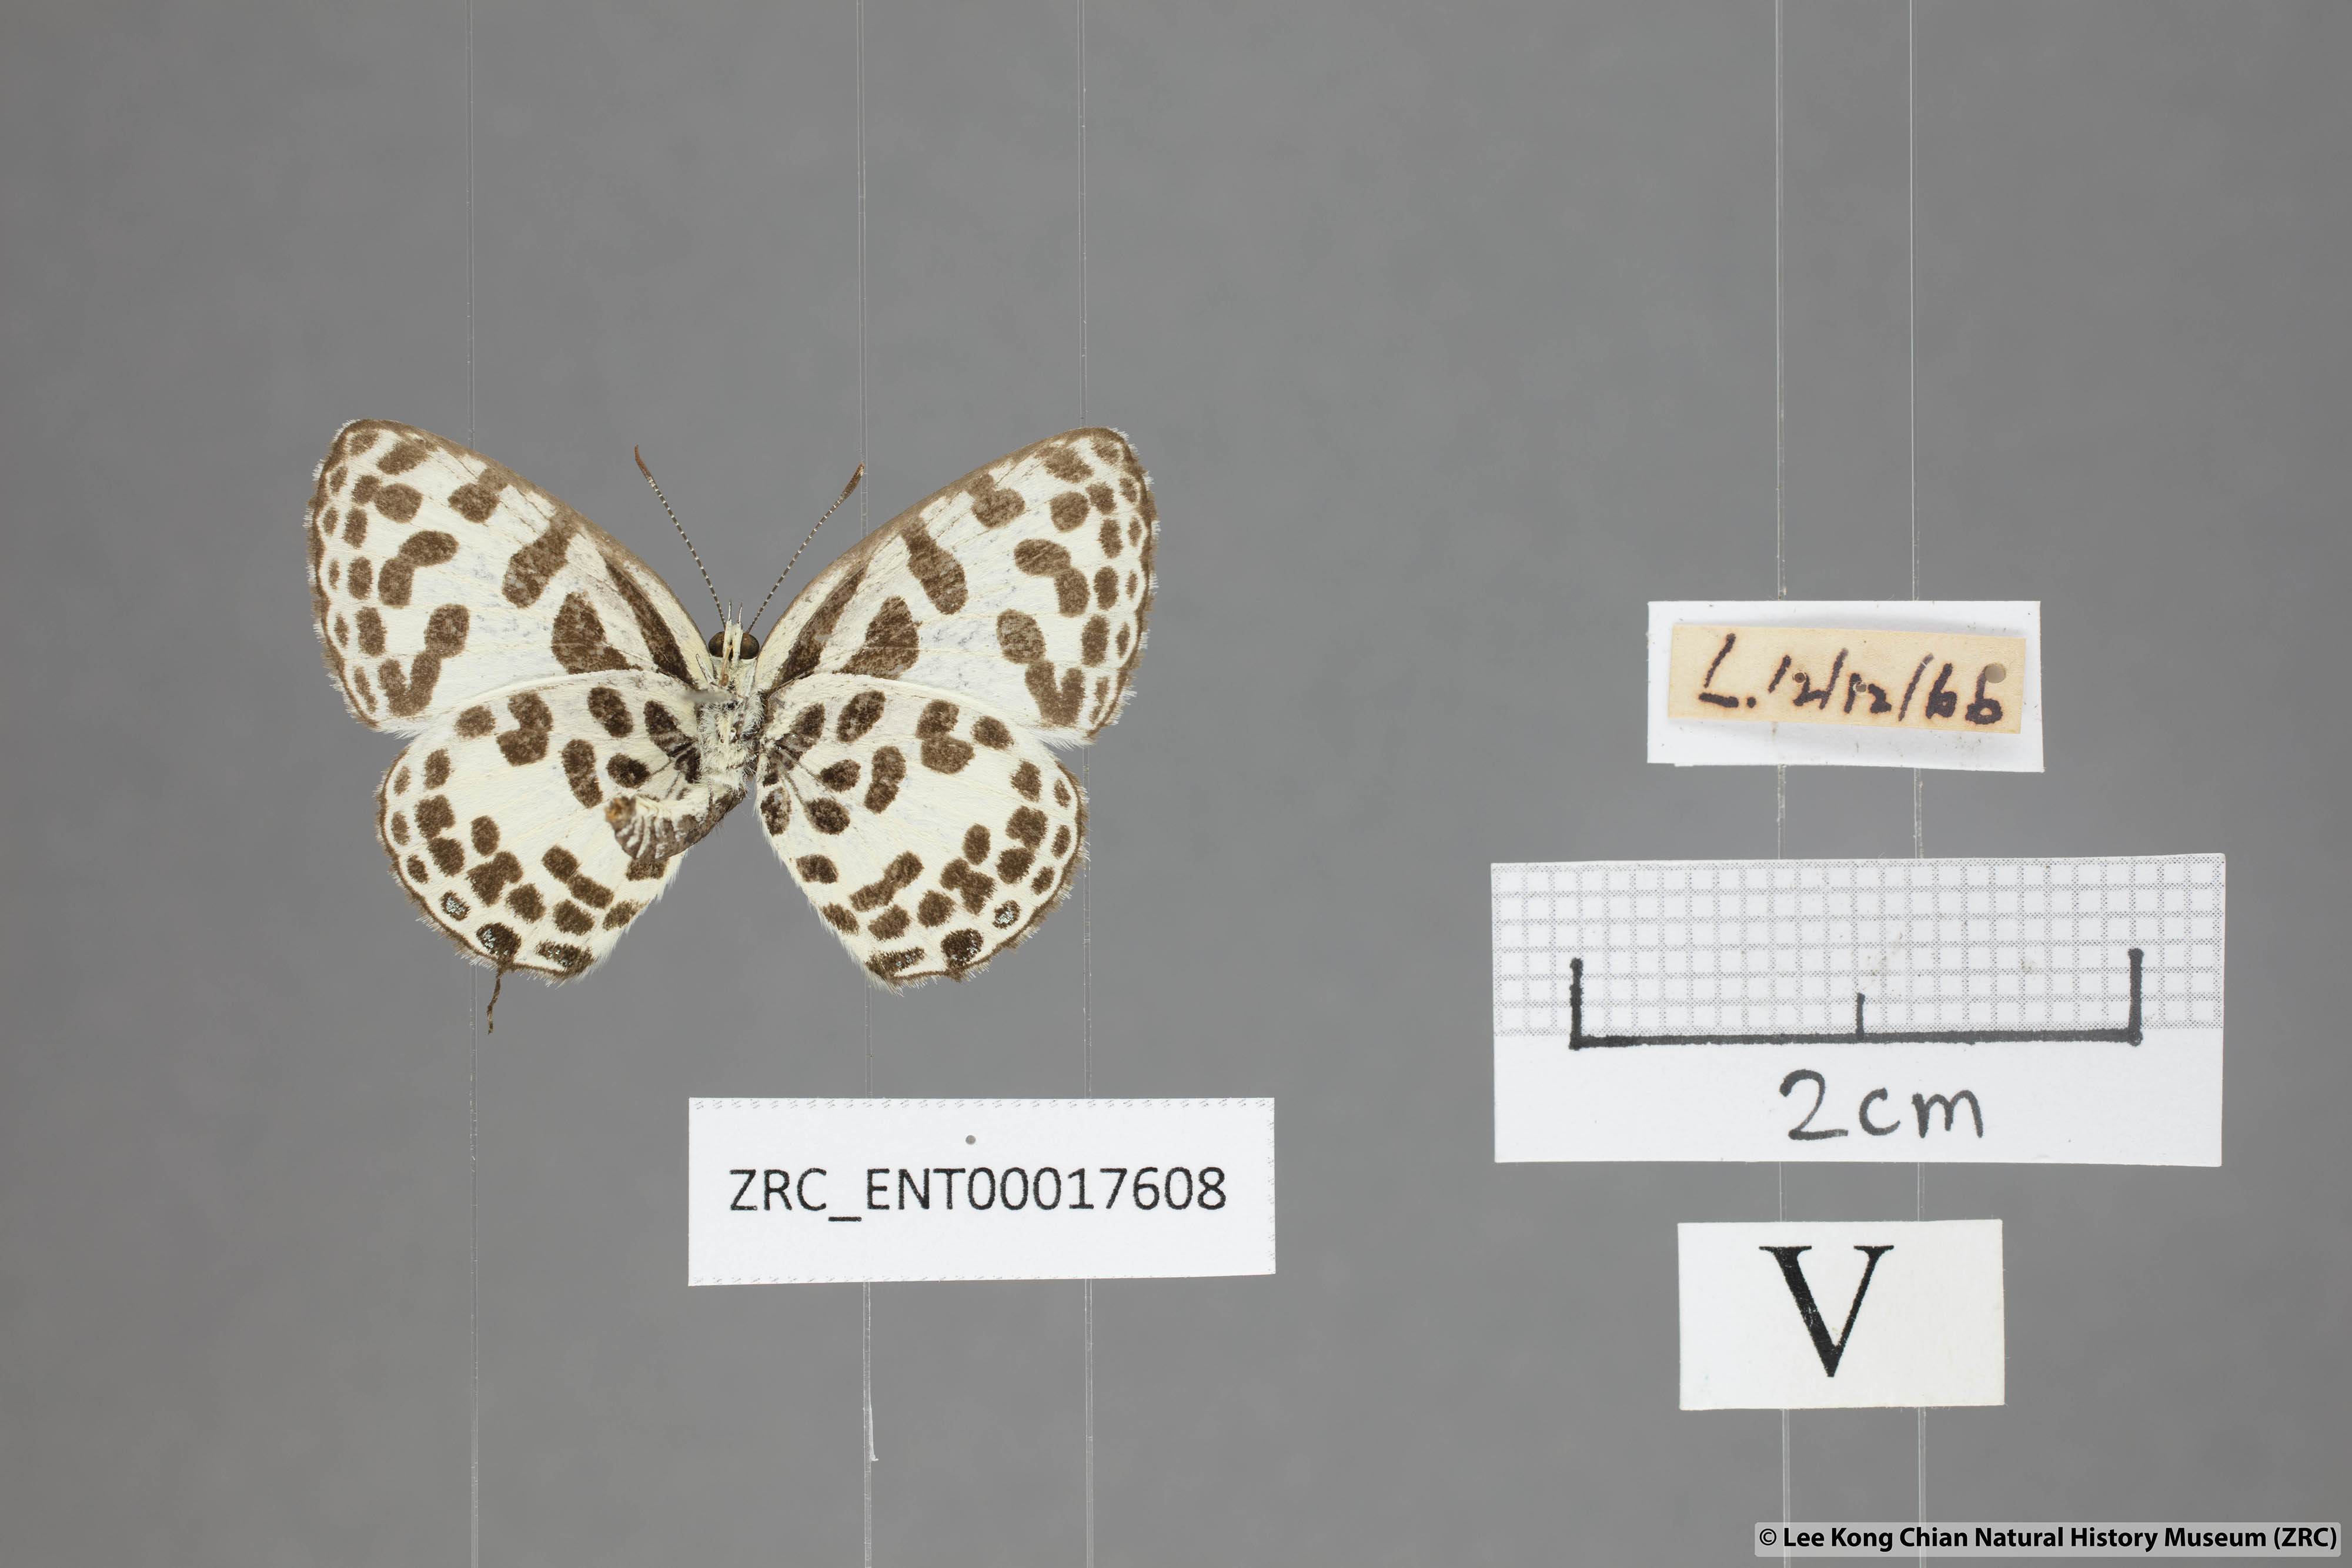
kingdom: Animalia
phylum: Arthropoda
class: Insecta
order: Lepidoptera
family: Lycaenidae
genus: Castalius
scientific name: Castalius rosimon
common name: Common pierrot
